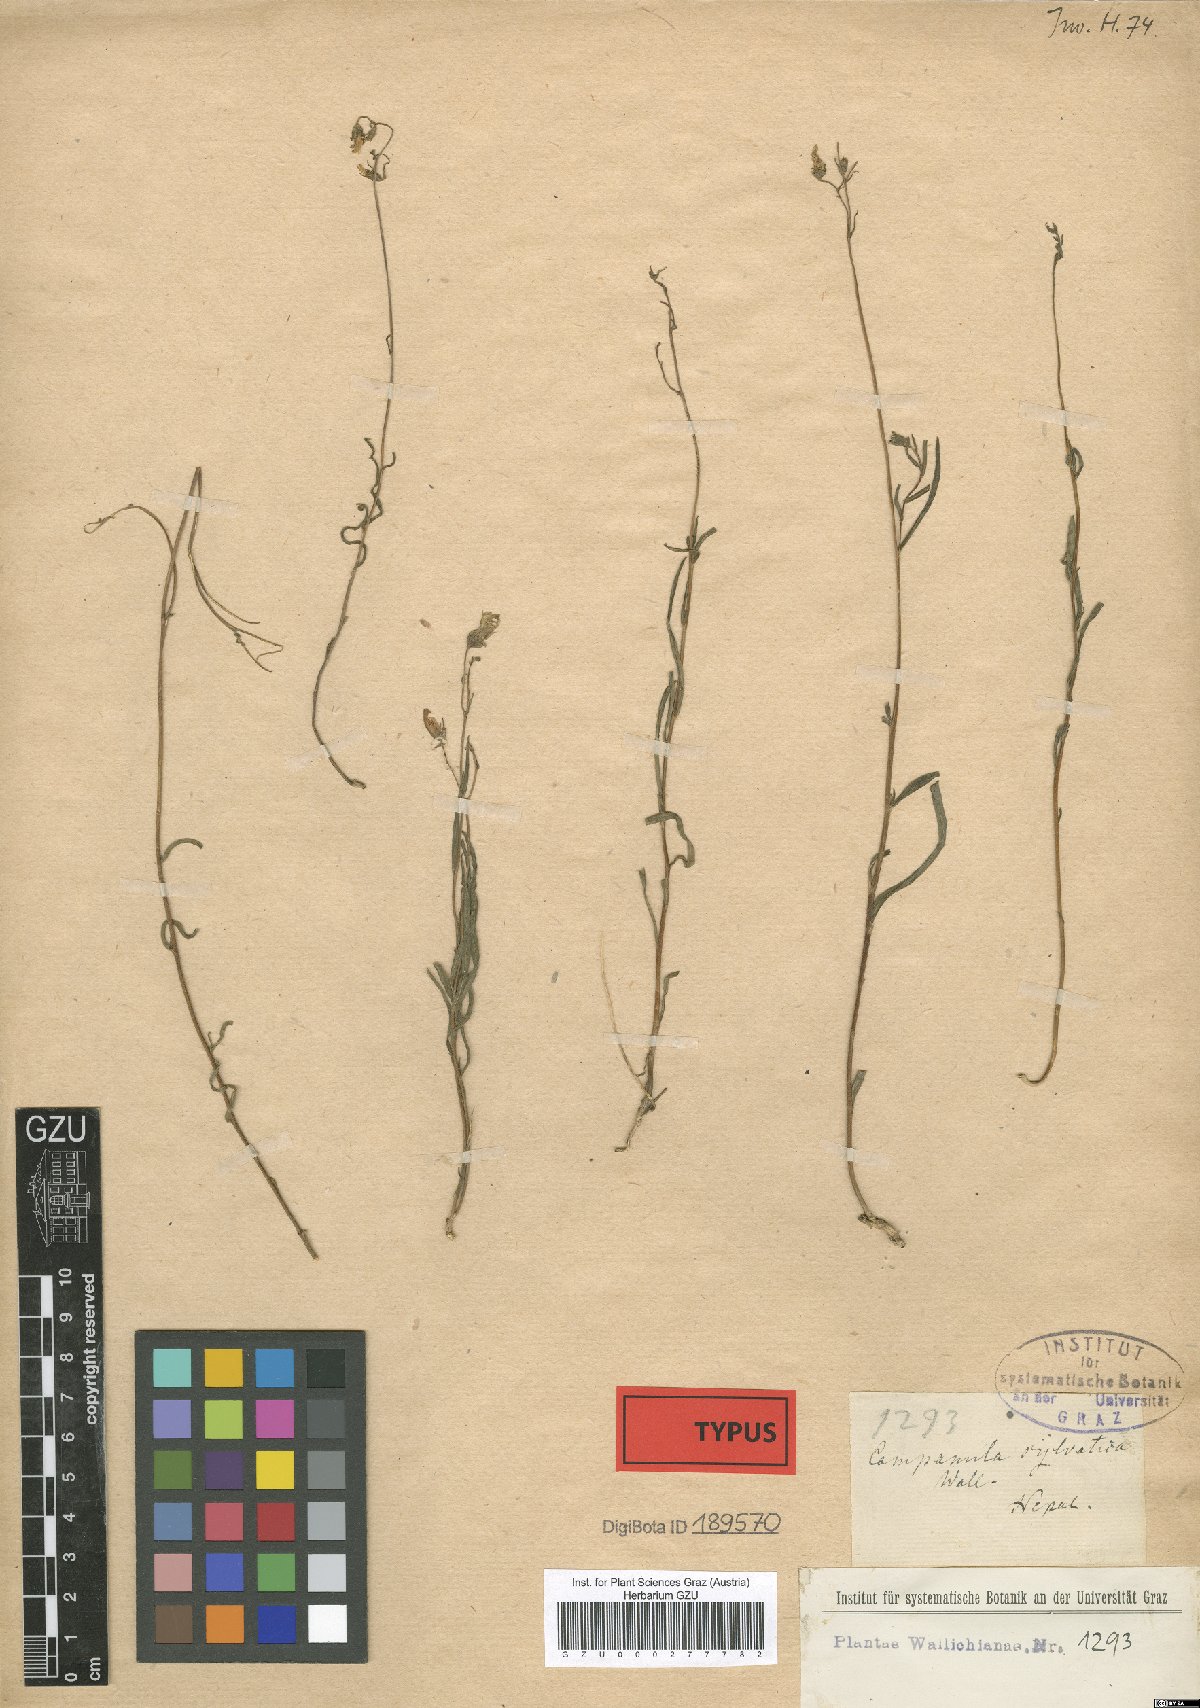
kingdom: Plantae
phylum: Tracheophyta
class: Magnoliopsida
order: Asterales
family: Campanulaceae
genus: Campanula
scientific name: Campanula sylvatica
